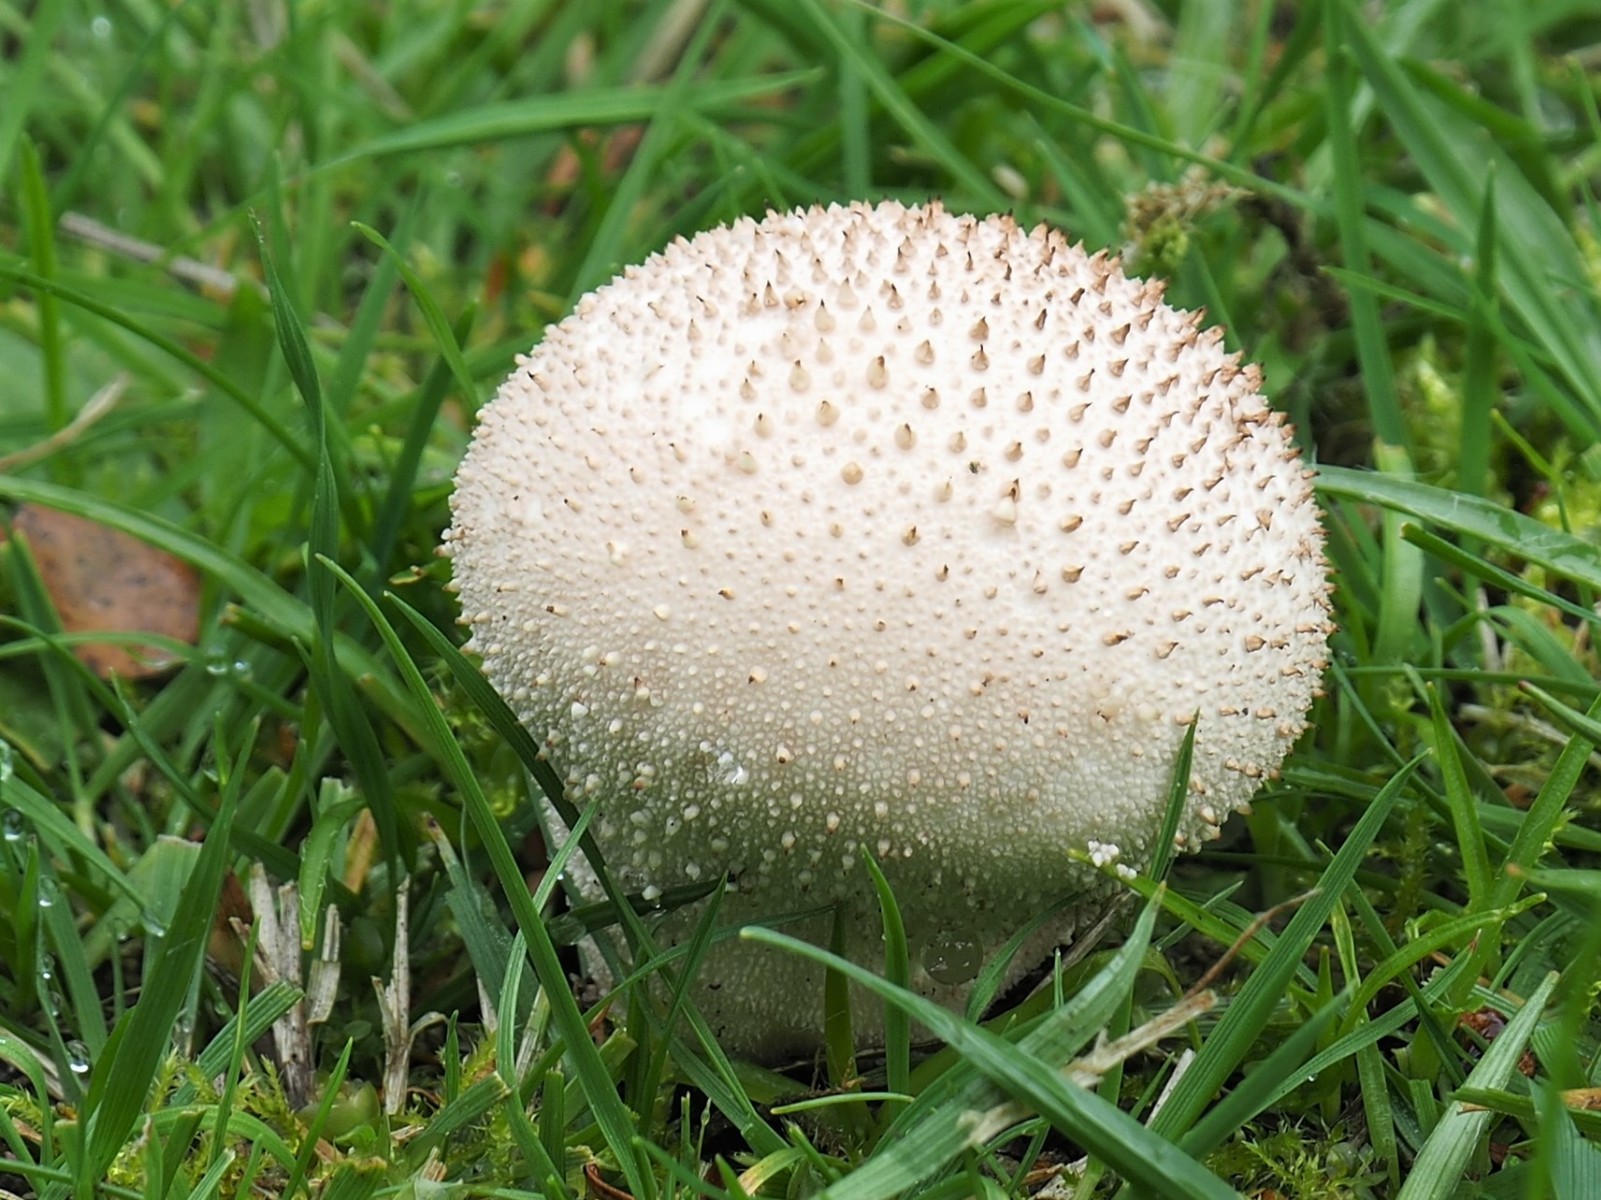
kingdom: Fungi
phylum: Basidiomycota
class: Agaricomycetes
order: Agaricales
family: Lycoperdaceae
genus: Lycoperdon
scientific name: Lycoperdon perlatum
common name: krystal-støvbold
